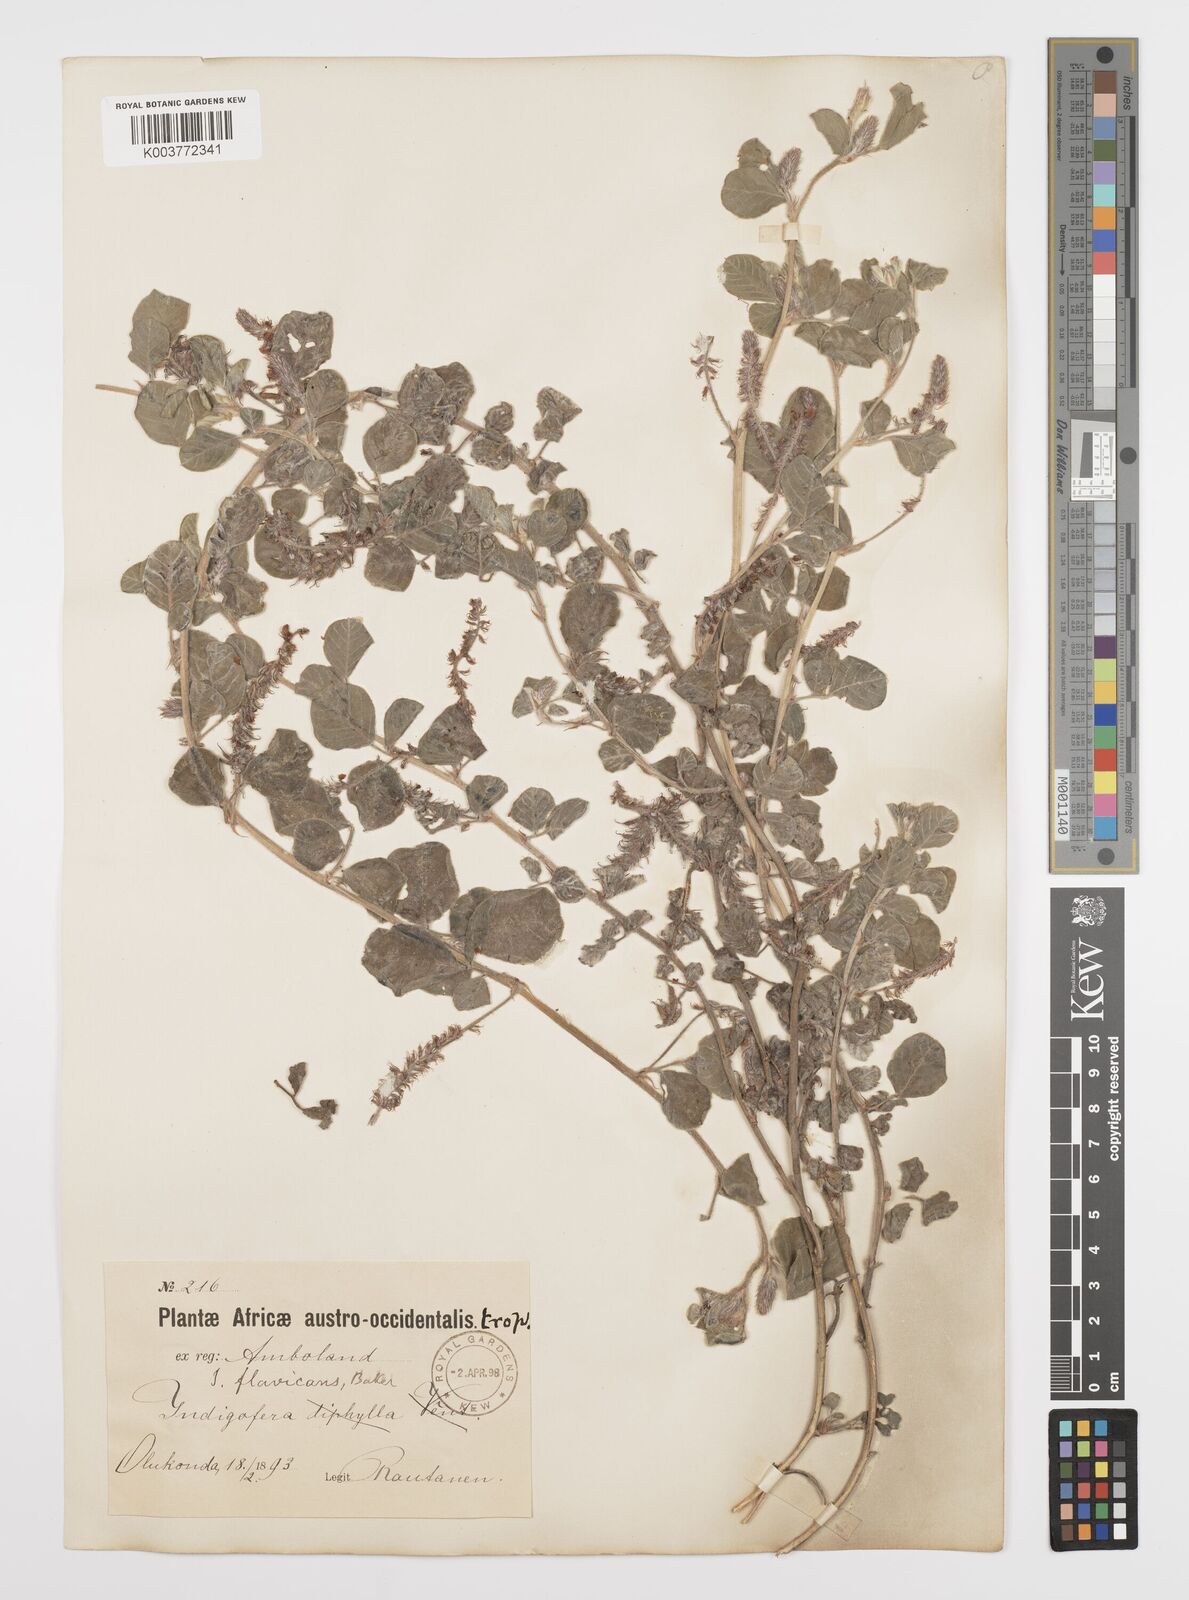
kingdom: Plantae
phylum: Tracheophyta
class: Magnoliopsida
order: Fabales
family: Fabaceae
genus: Indigofera
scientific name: Indigofera flavicans
